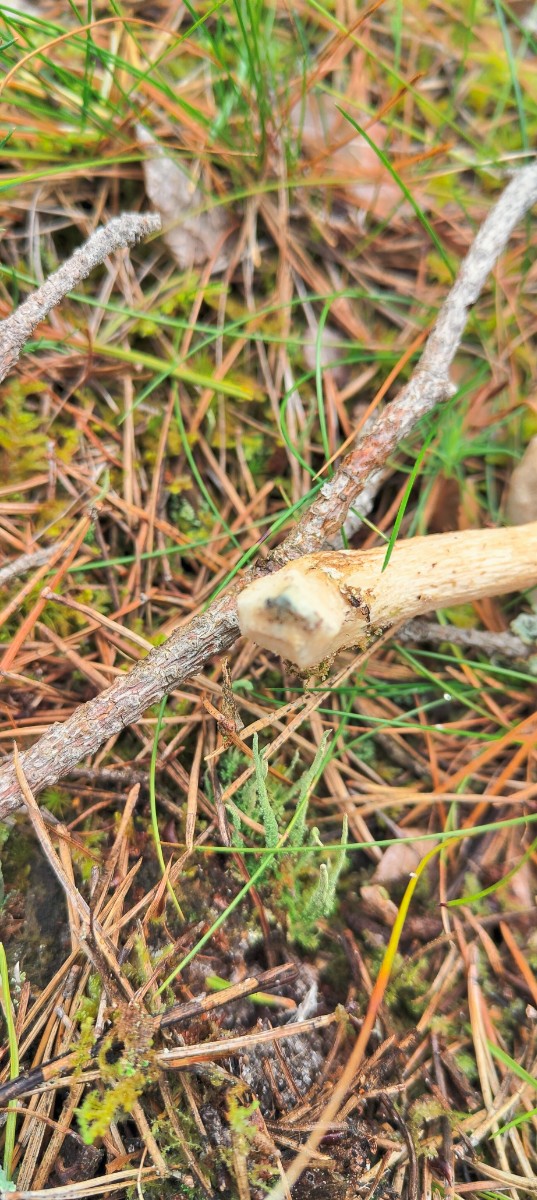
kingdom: Fungi
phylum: Basidiomycota
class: Agaricomycetes
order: Boletales
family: Boletaceae
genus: Leccinum
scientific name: Leccinum
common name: skælrørhat
